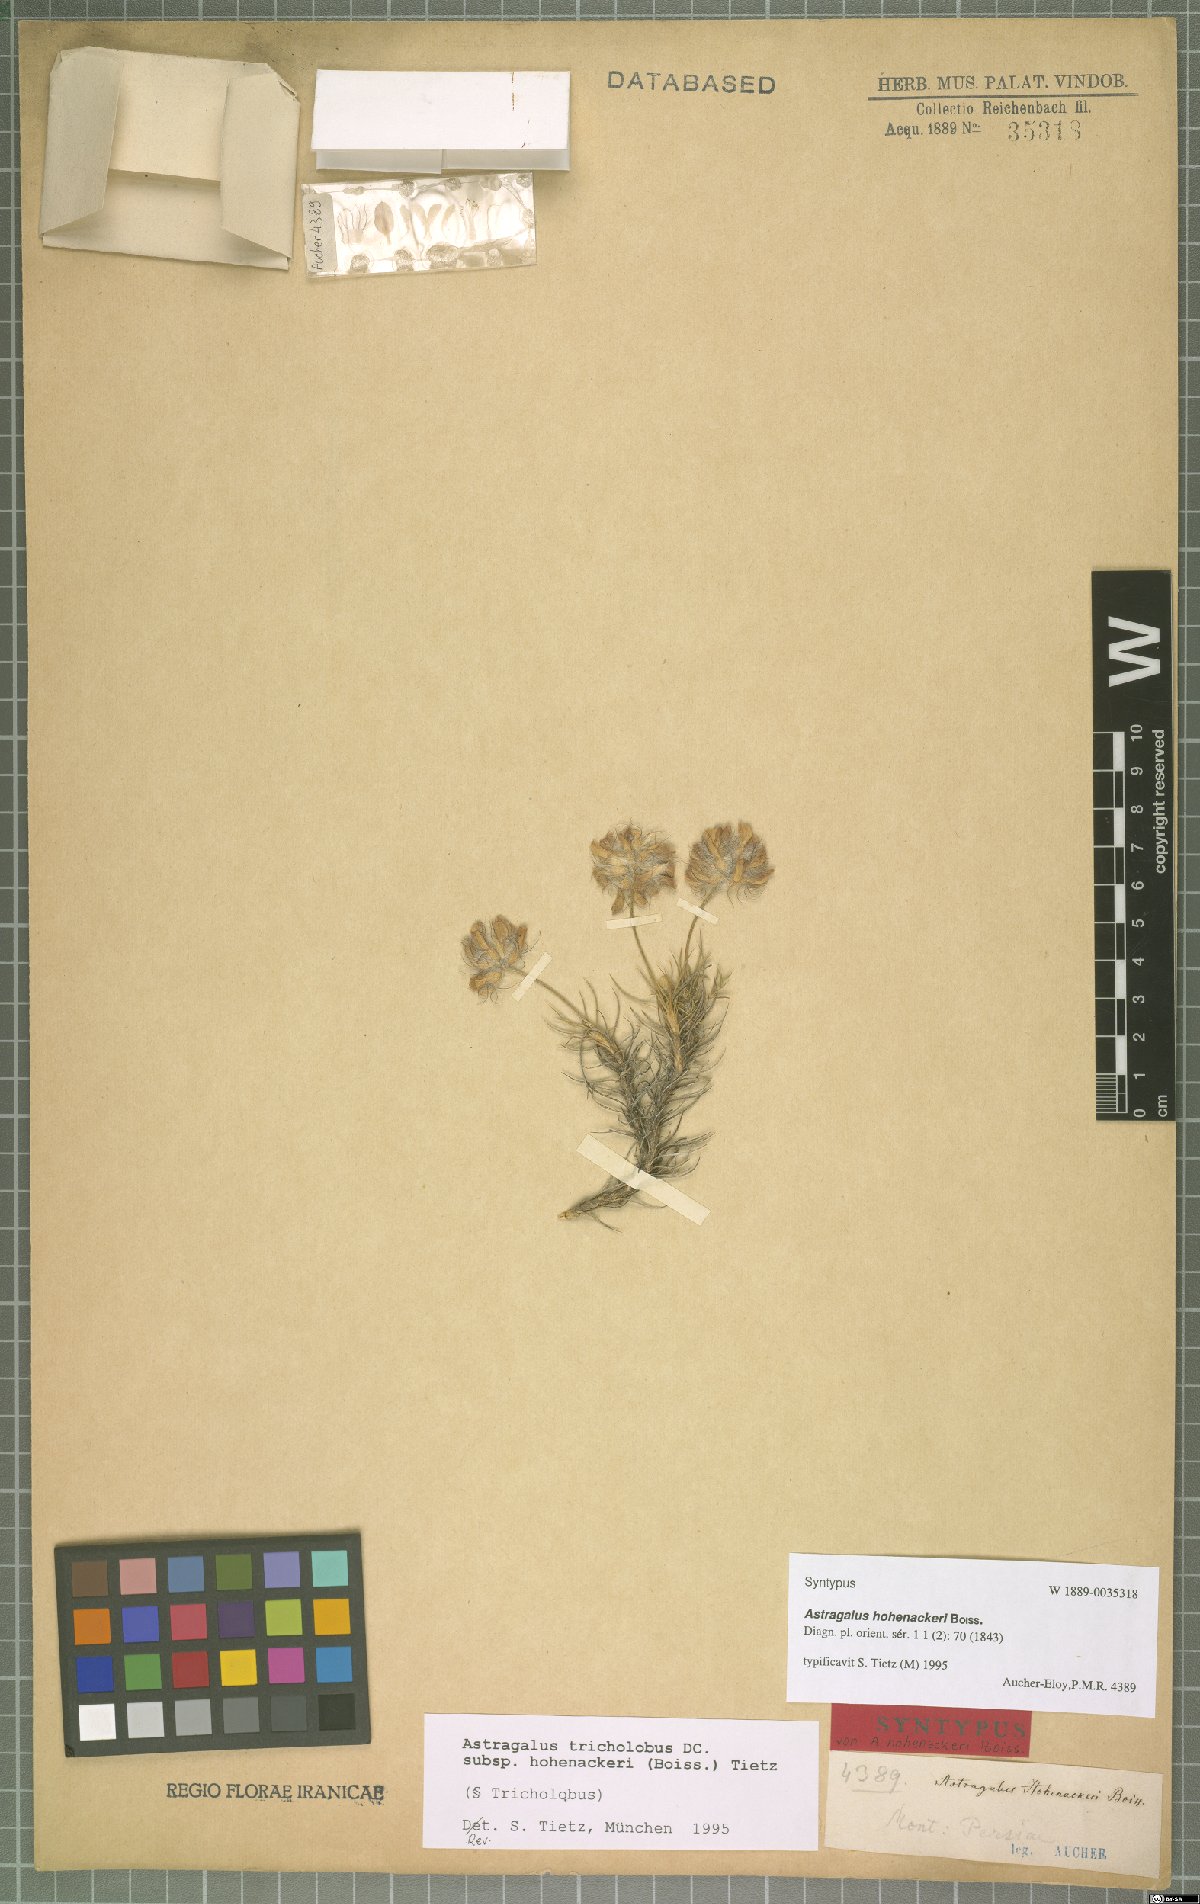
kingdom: Plantae
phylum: Tracheophyta
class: Magnoliopsida
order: Fabales
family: Fabaceae
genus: Astragalus
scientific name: Astragalus hohenackeri
